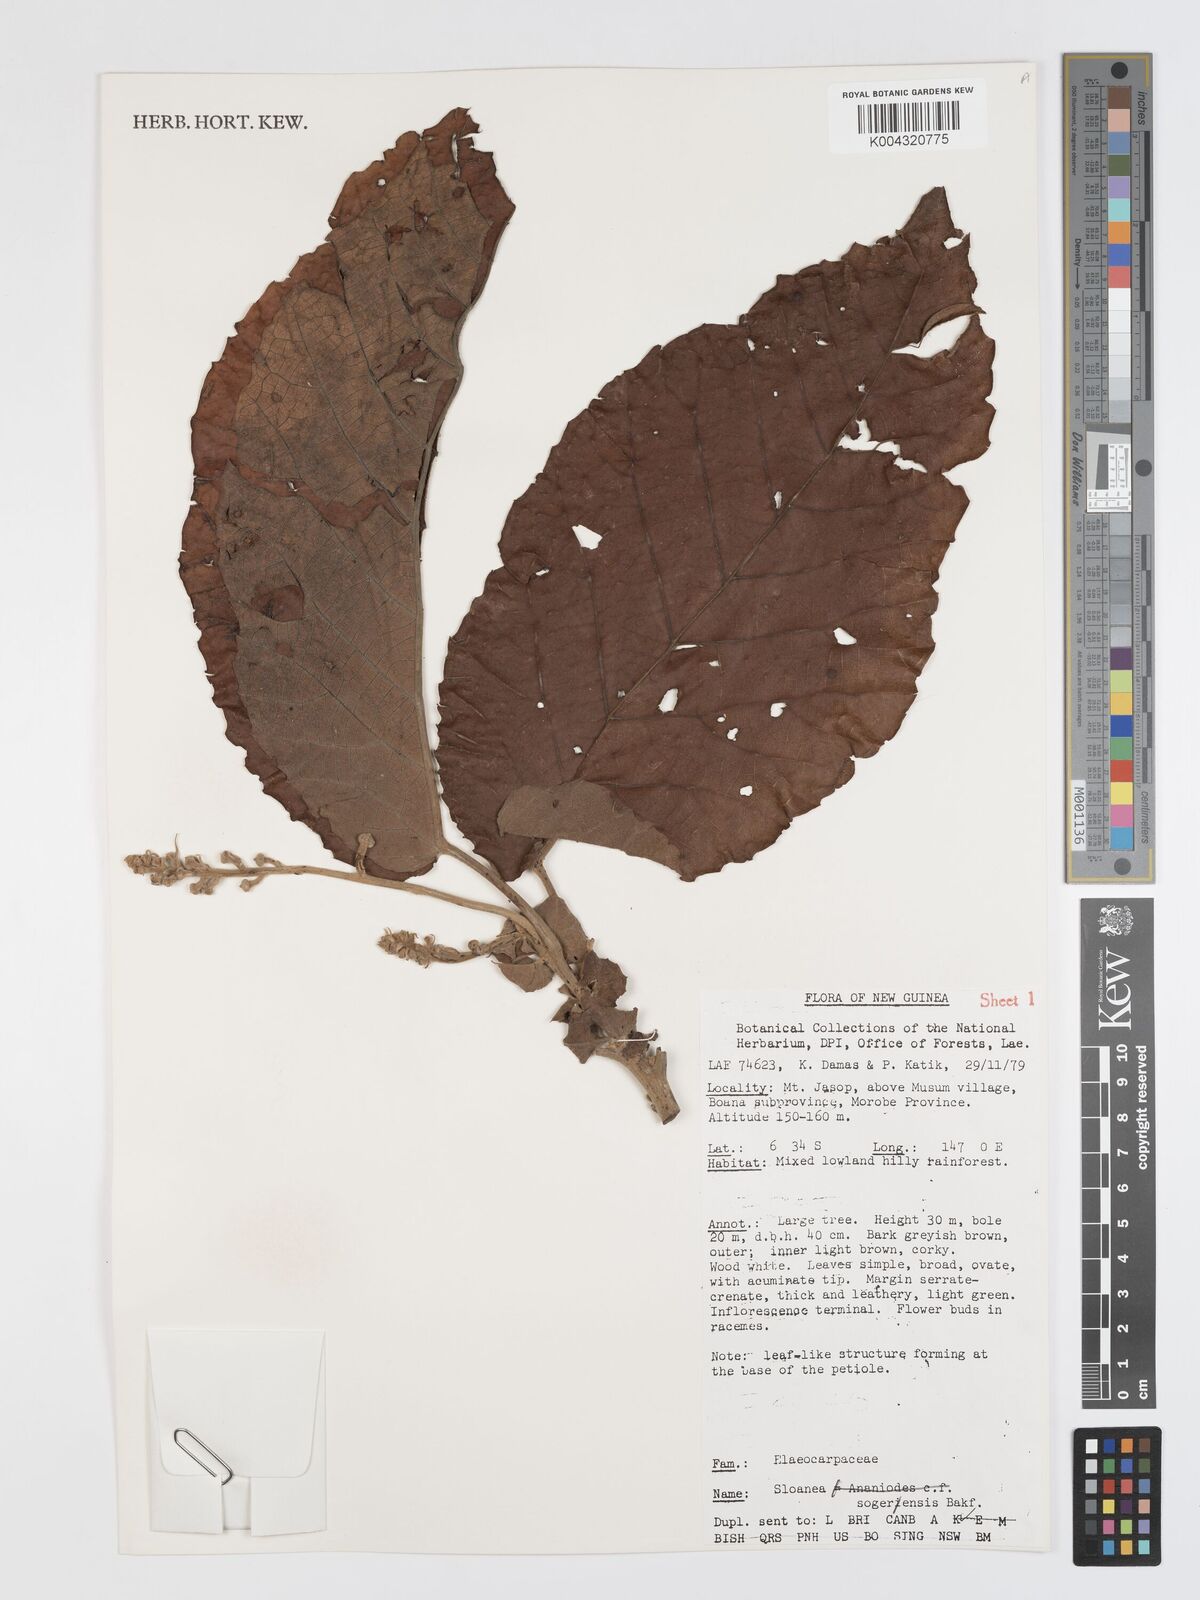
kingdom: Plantae
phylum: Tracheophyta
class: Magnoliopsida
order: Oxalidales
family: Elaeocarpaceae
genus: Sloanea
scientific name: Sloanea sogerensis
